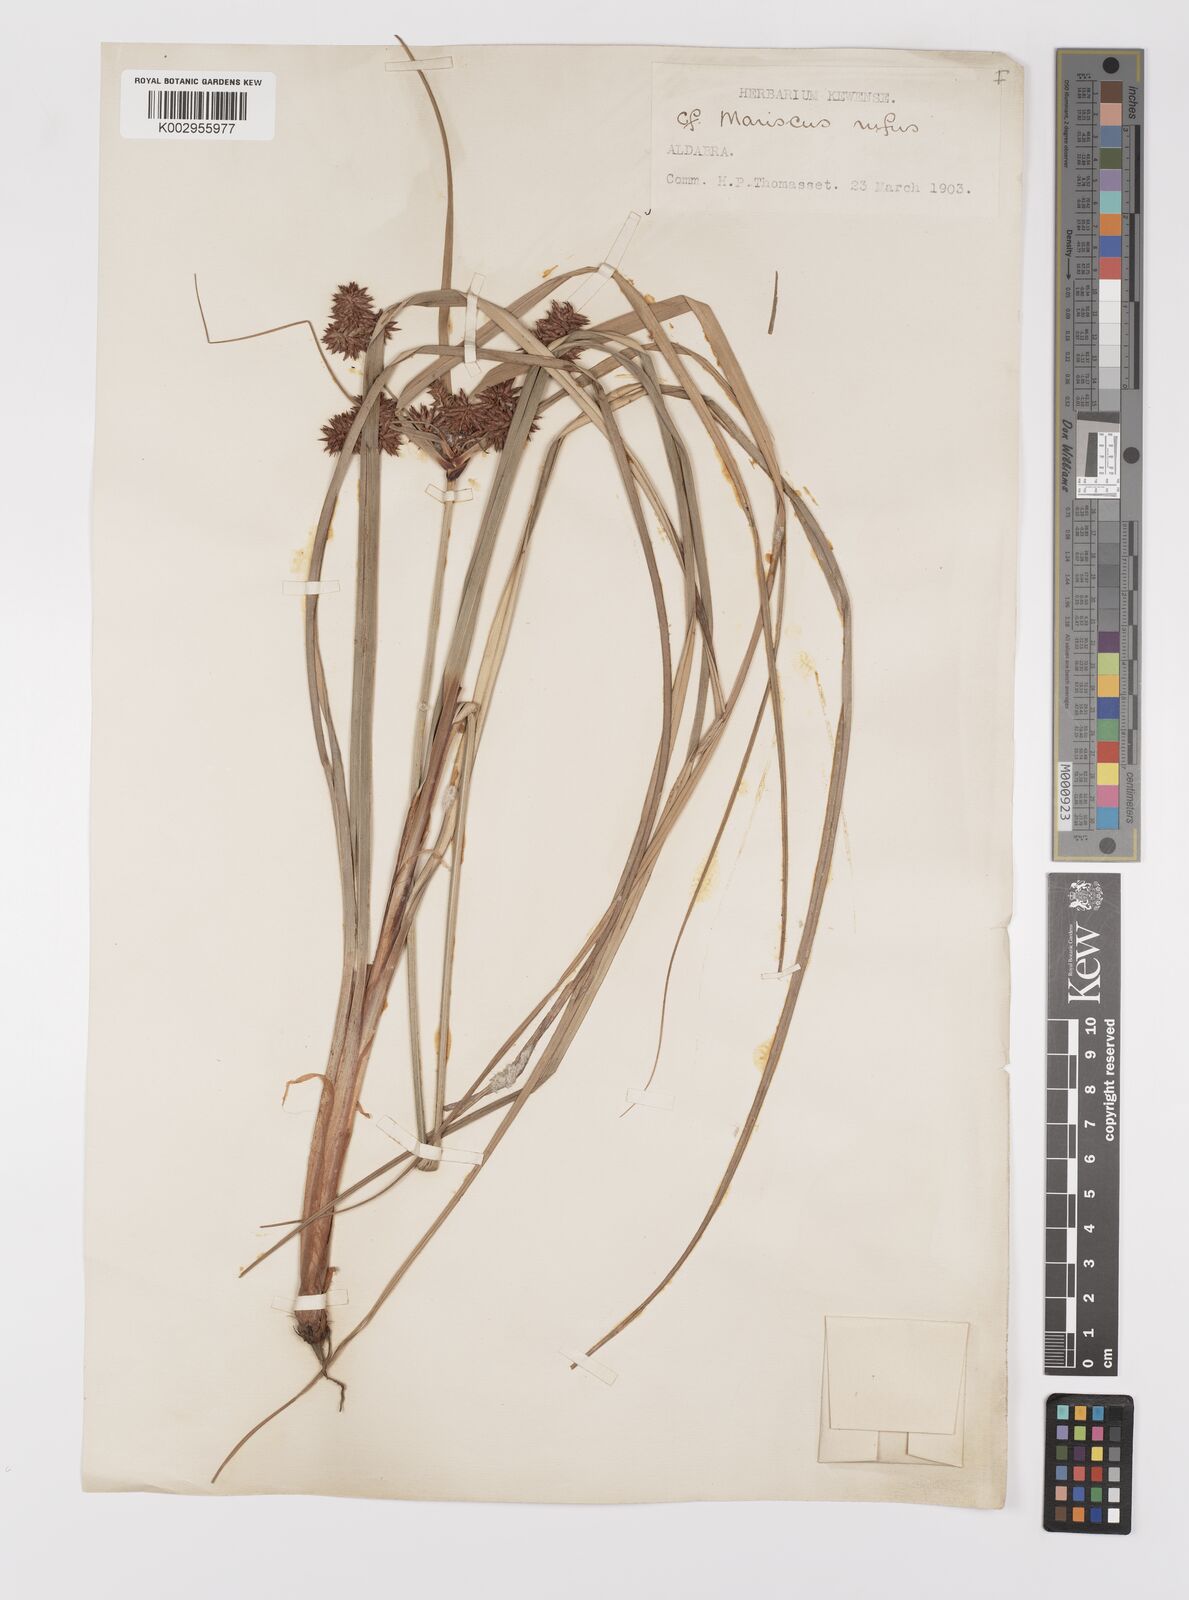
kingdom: Plantae
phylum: Tracheophyta
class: Liliopsida
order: Poales
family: Cyperaceae
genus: Cyperus
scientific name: Cyperus ligularis
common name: Swamp flat sedge
